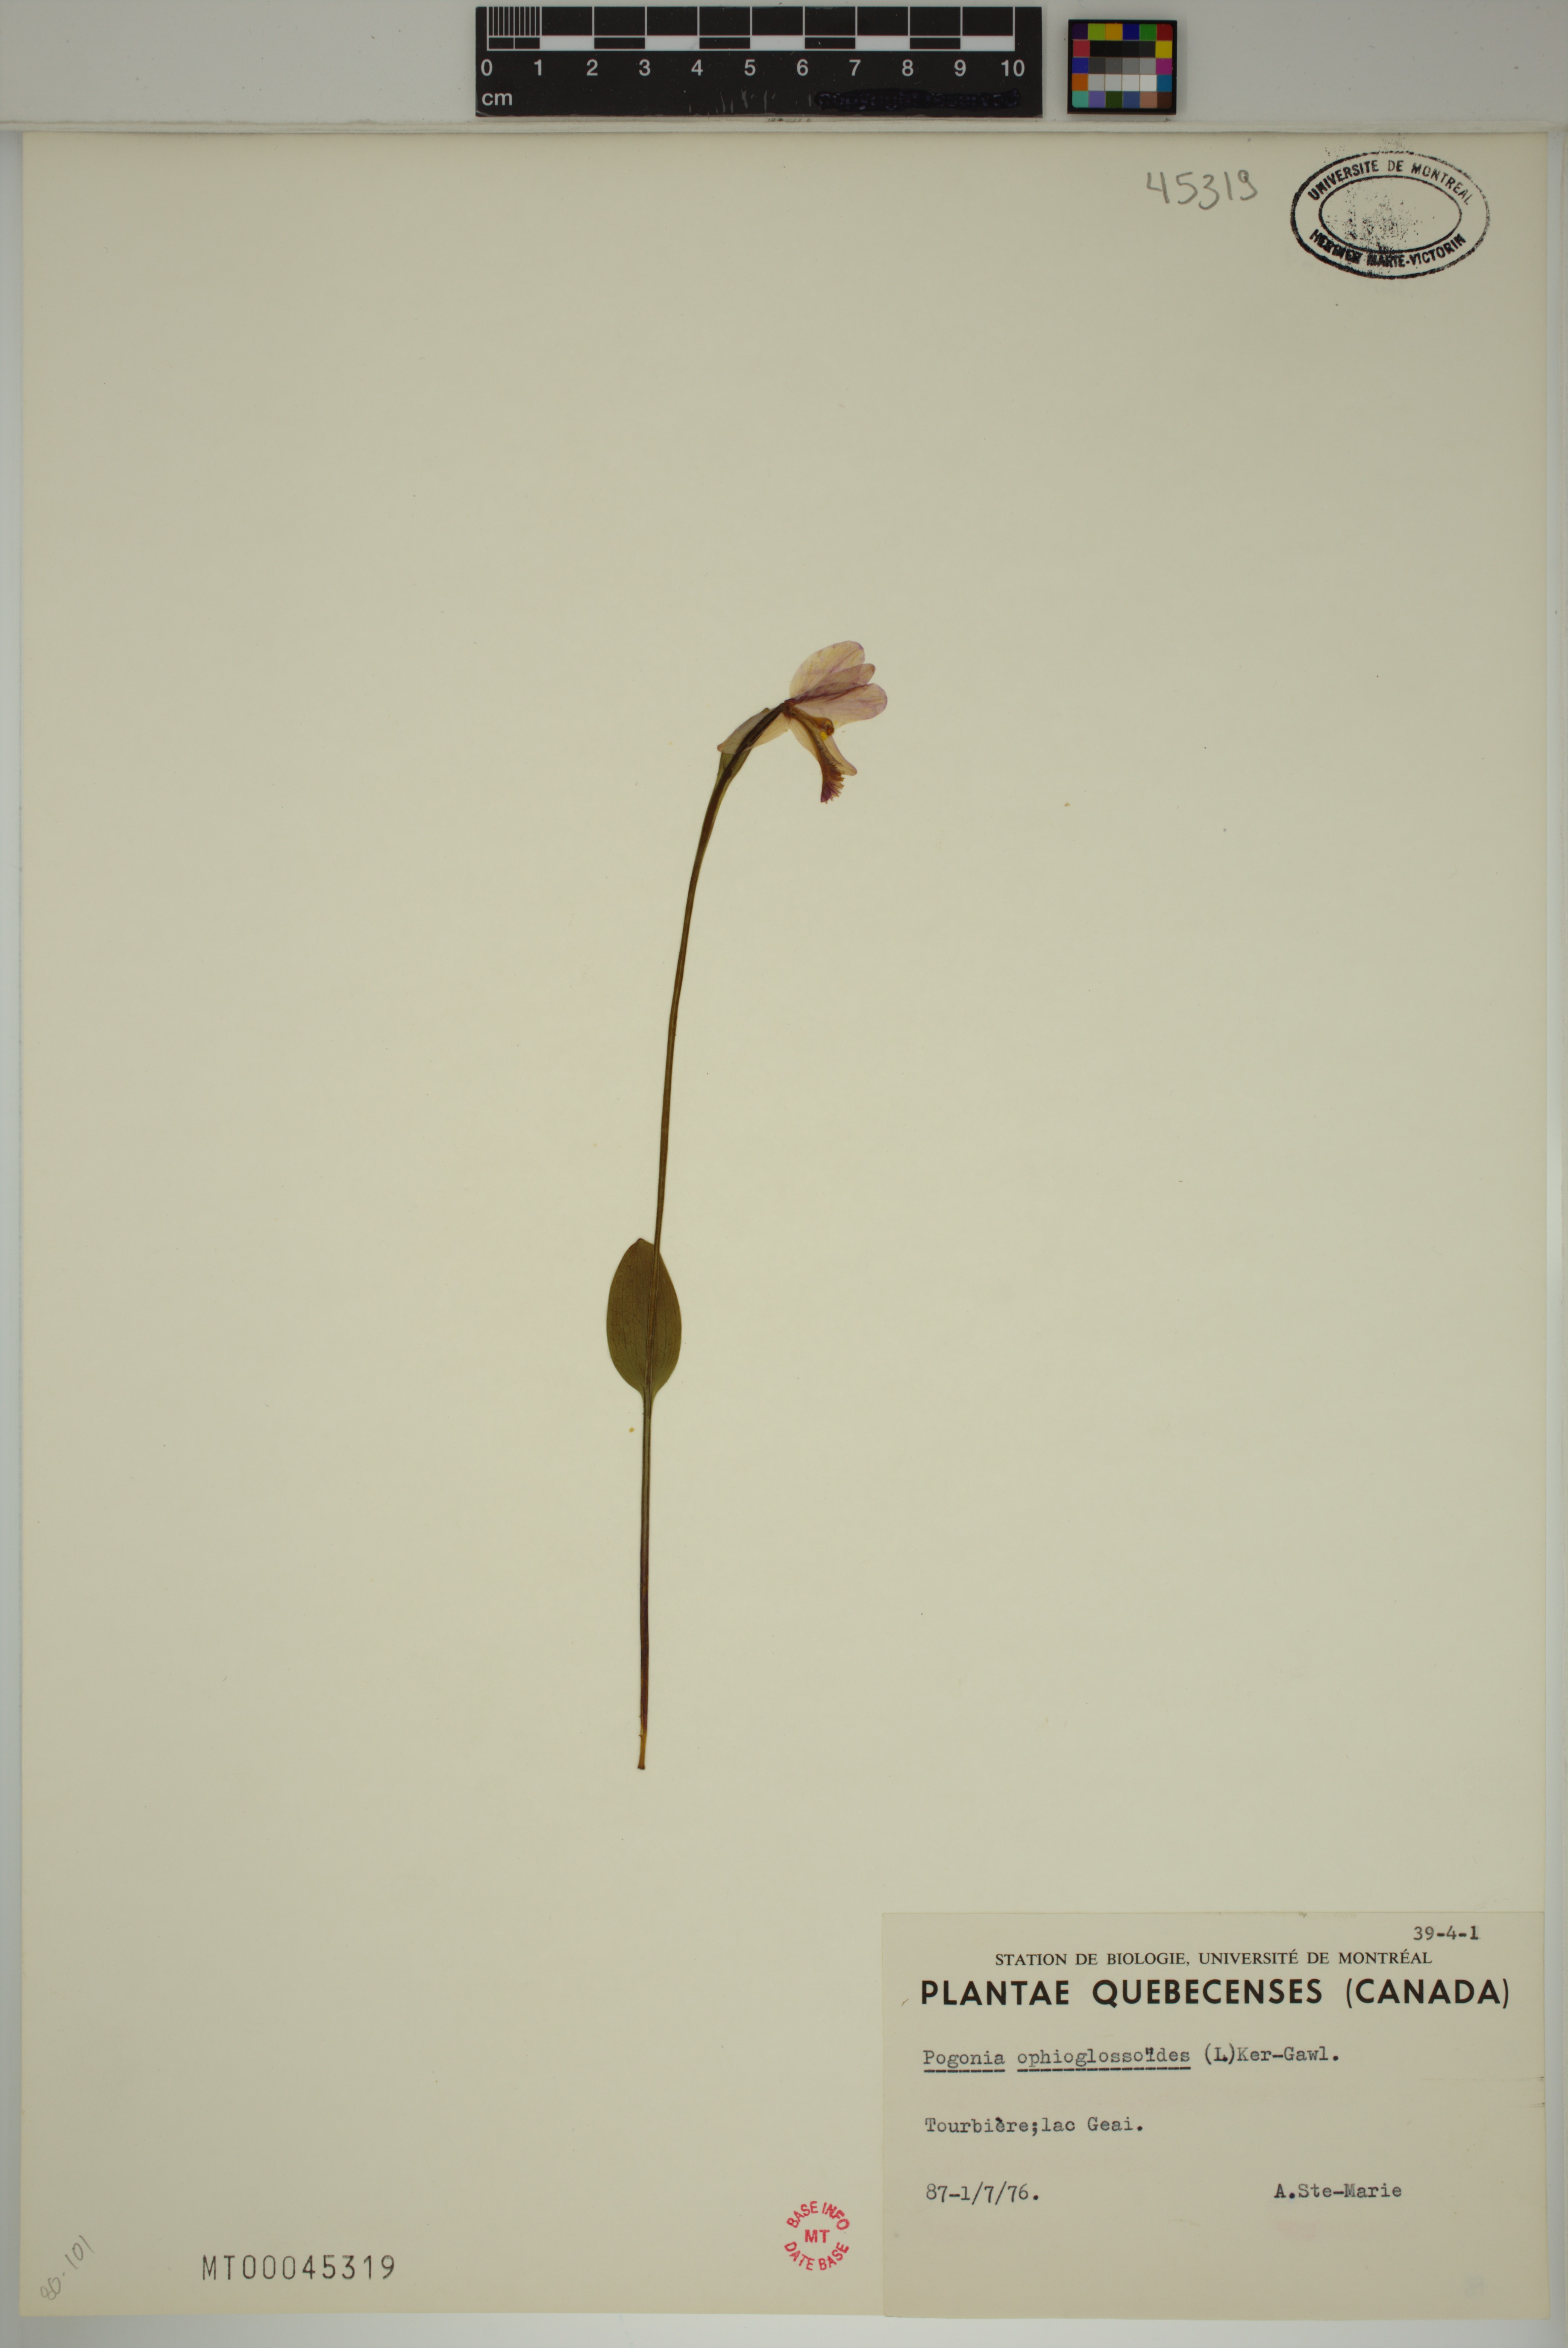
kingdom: Plantae
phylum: Tracheophyta
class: Liliopsida
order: Asparagales
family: Orchidaceae
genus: Pogonia
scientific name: Pogonia ophioglossoides
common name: Rose pogonia
